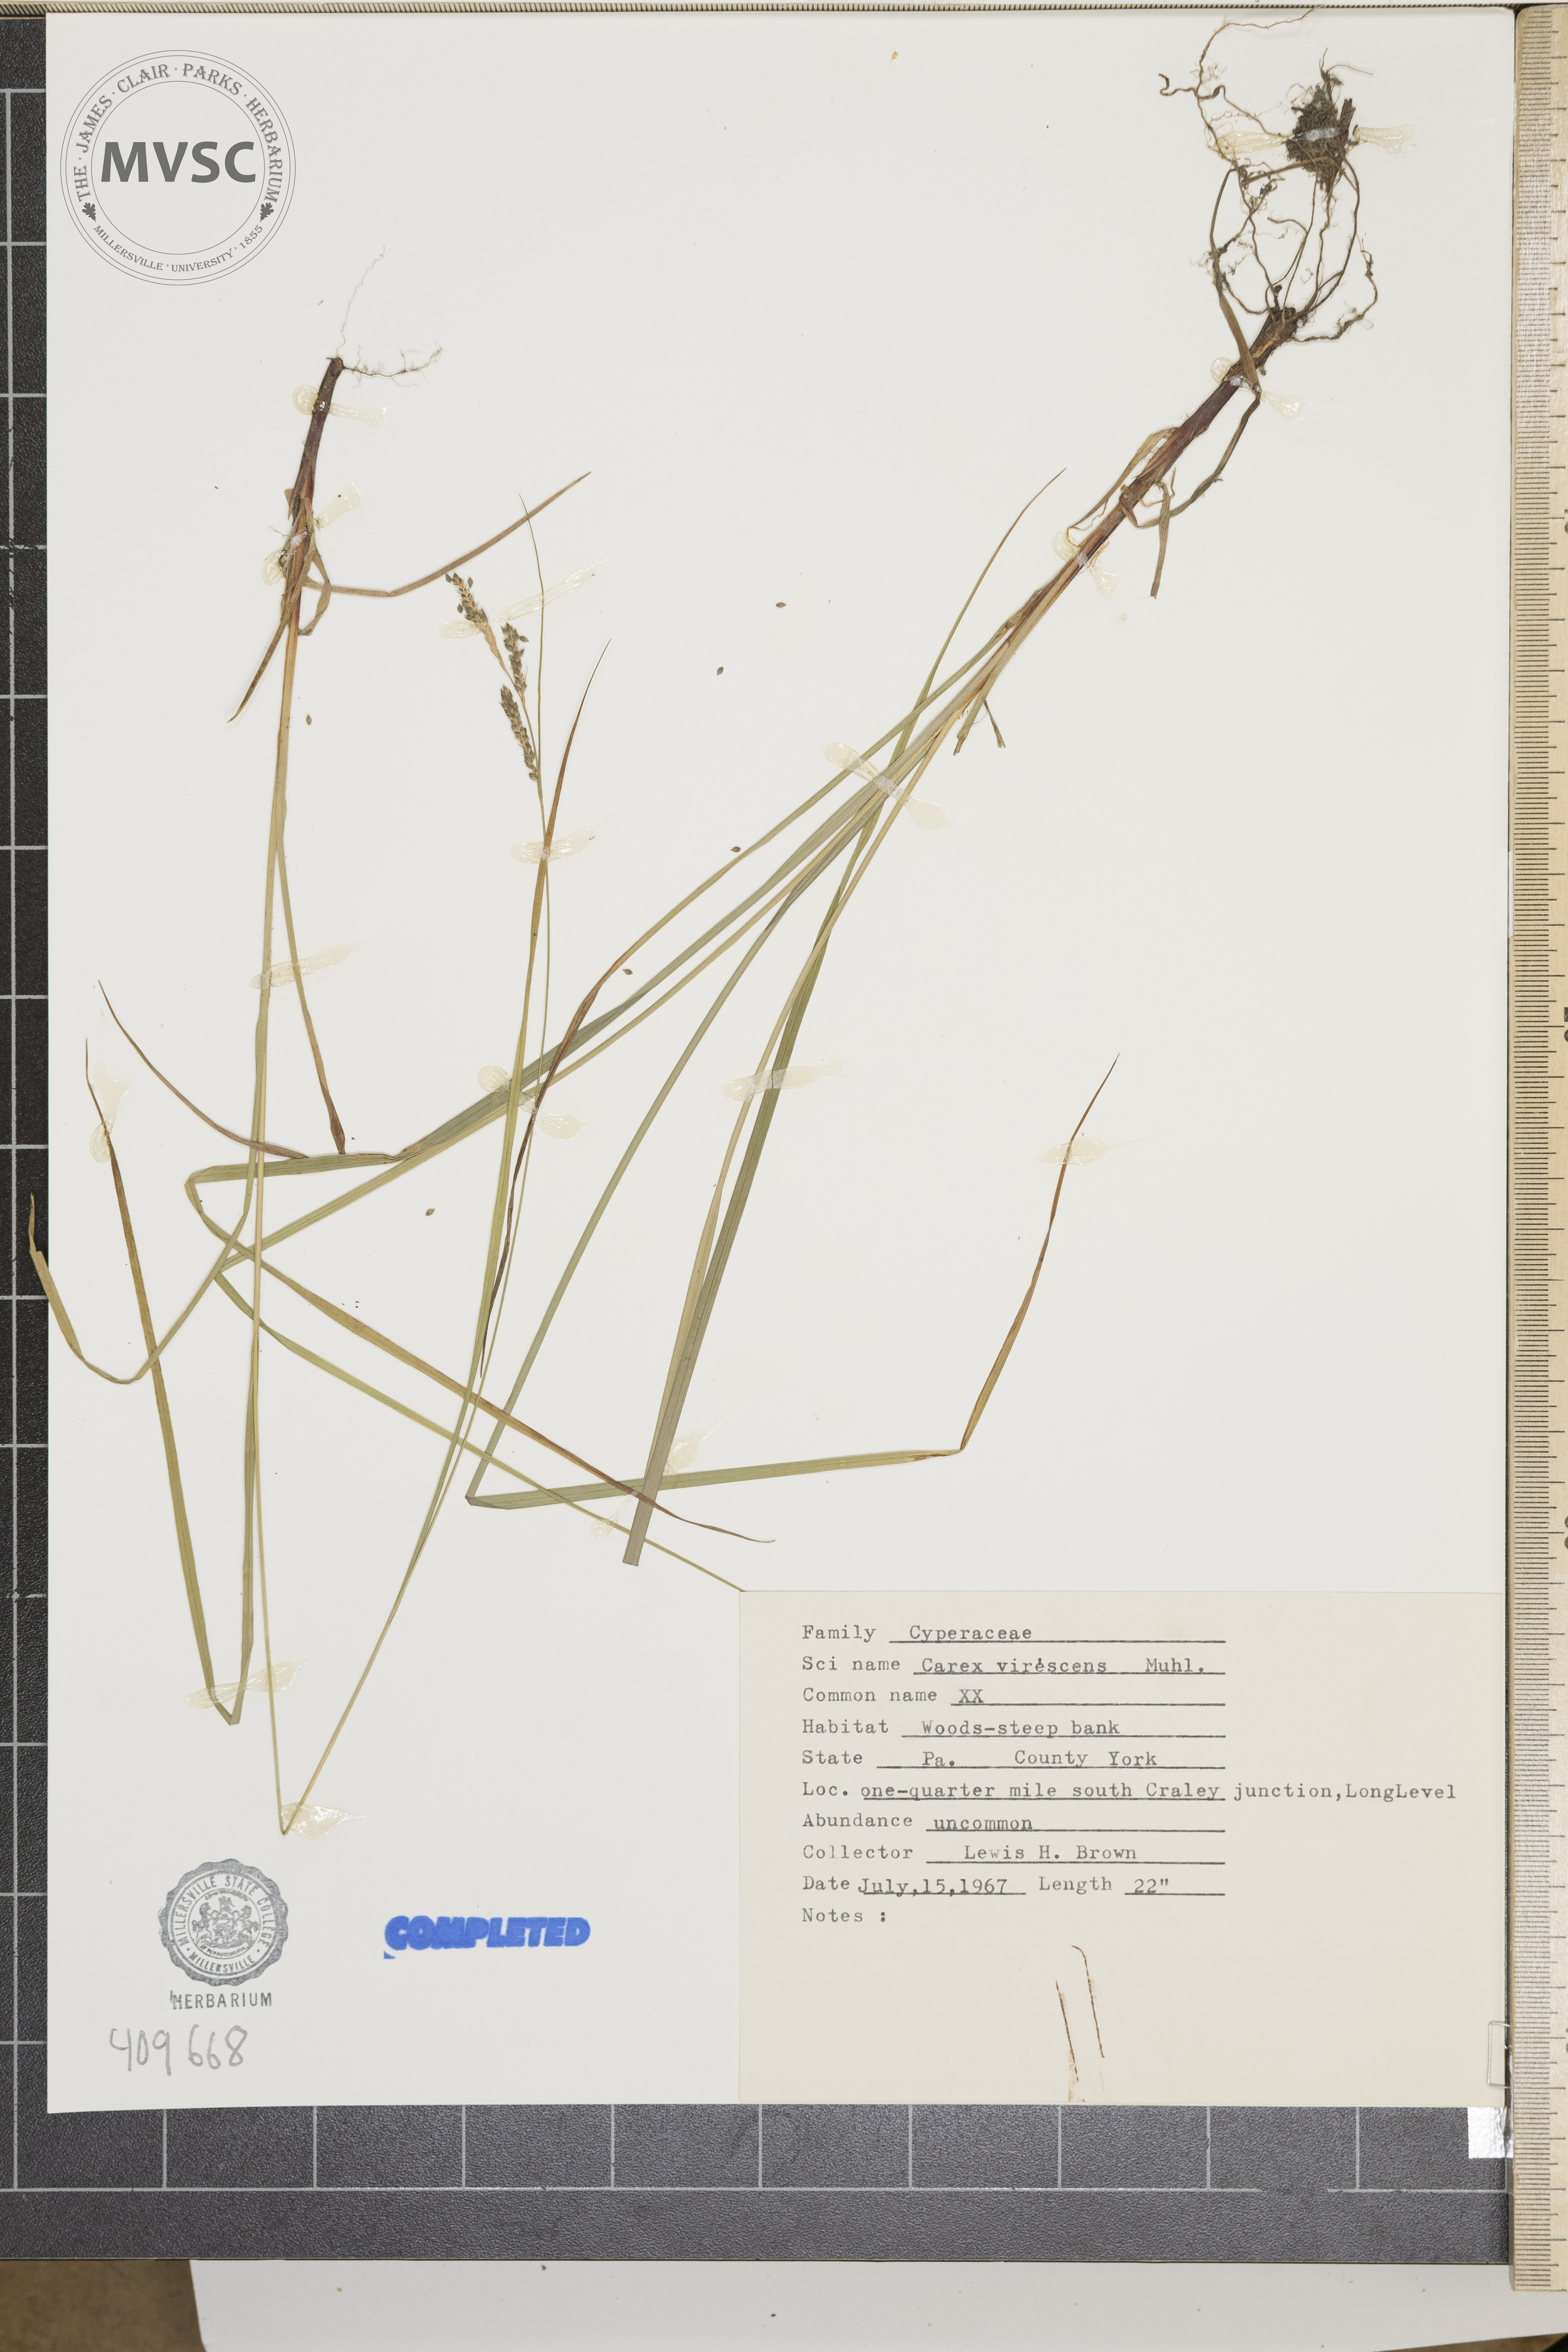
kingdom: Plantae
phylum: Tracheophyta
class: Liliopsida
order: Poales
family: Cyperaceae
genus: Carex
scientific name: Carex virescens
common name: Ribbed sedge
